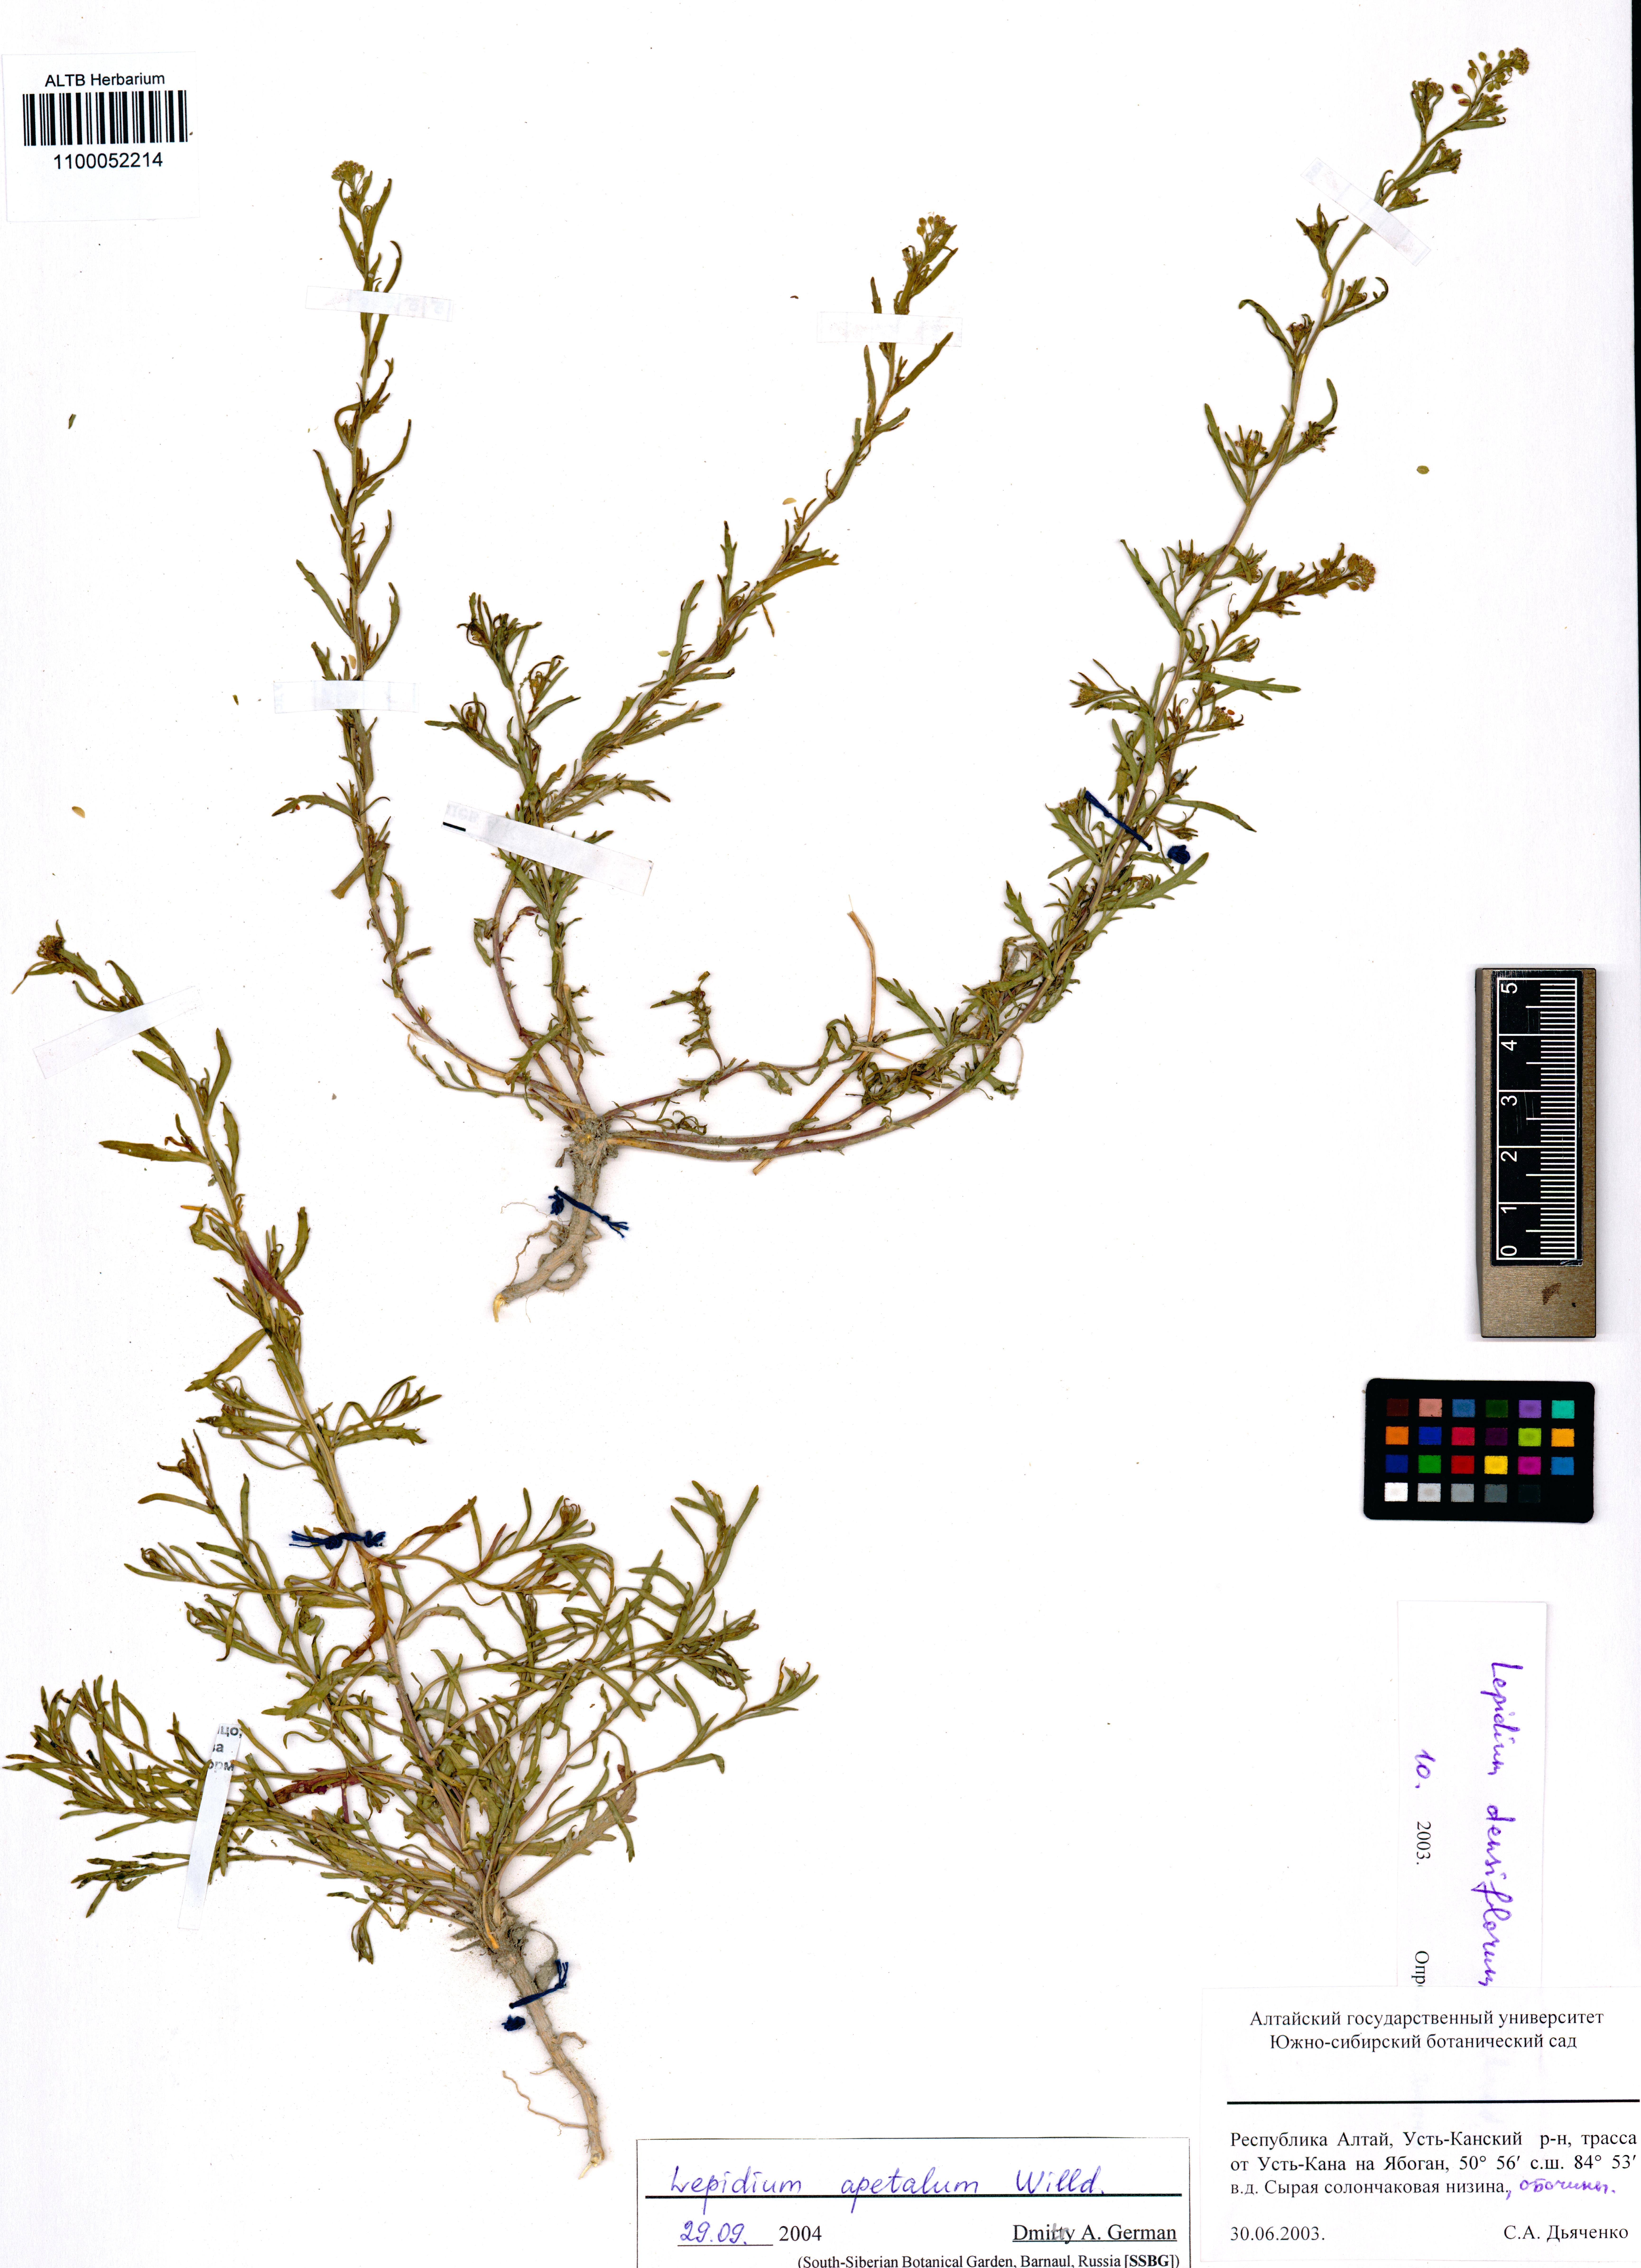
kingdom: Plantae
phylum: Tracheophyta
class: Magnoliopsida
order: Brassicales
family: Brassicaceae
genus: Lepidium
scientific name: Lepidium apetalum
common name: Pepperweed
